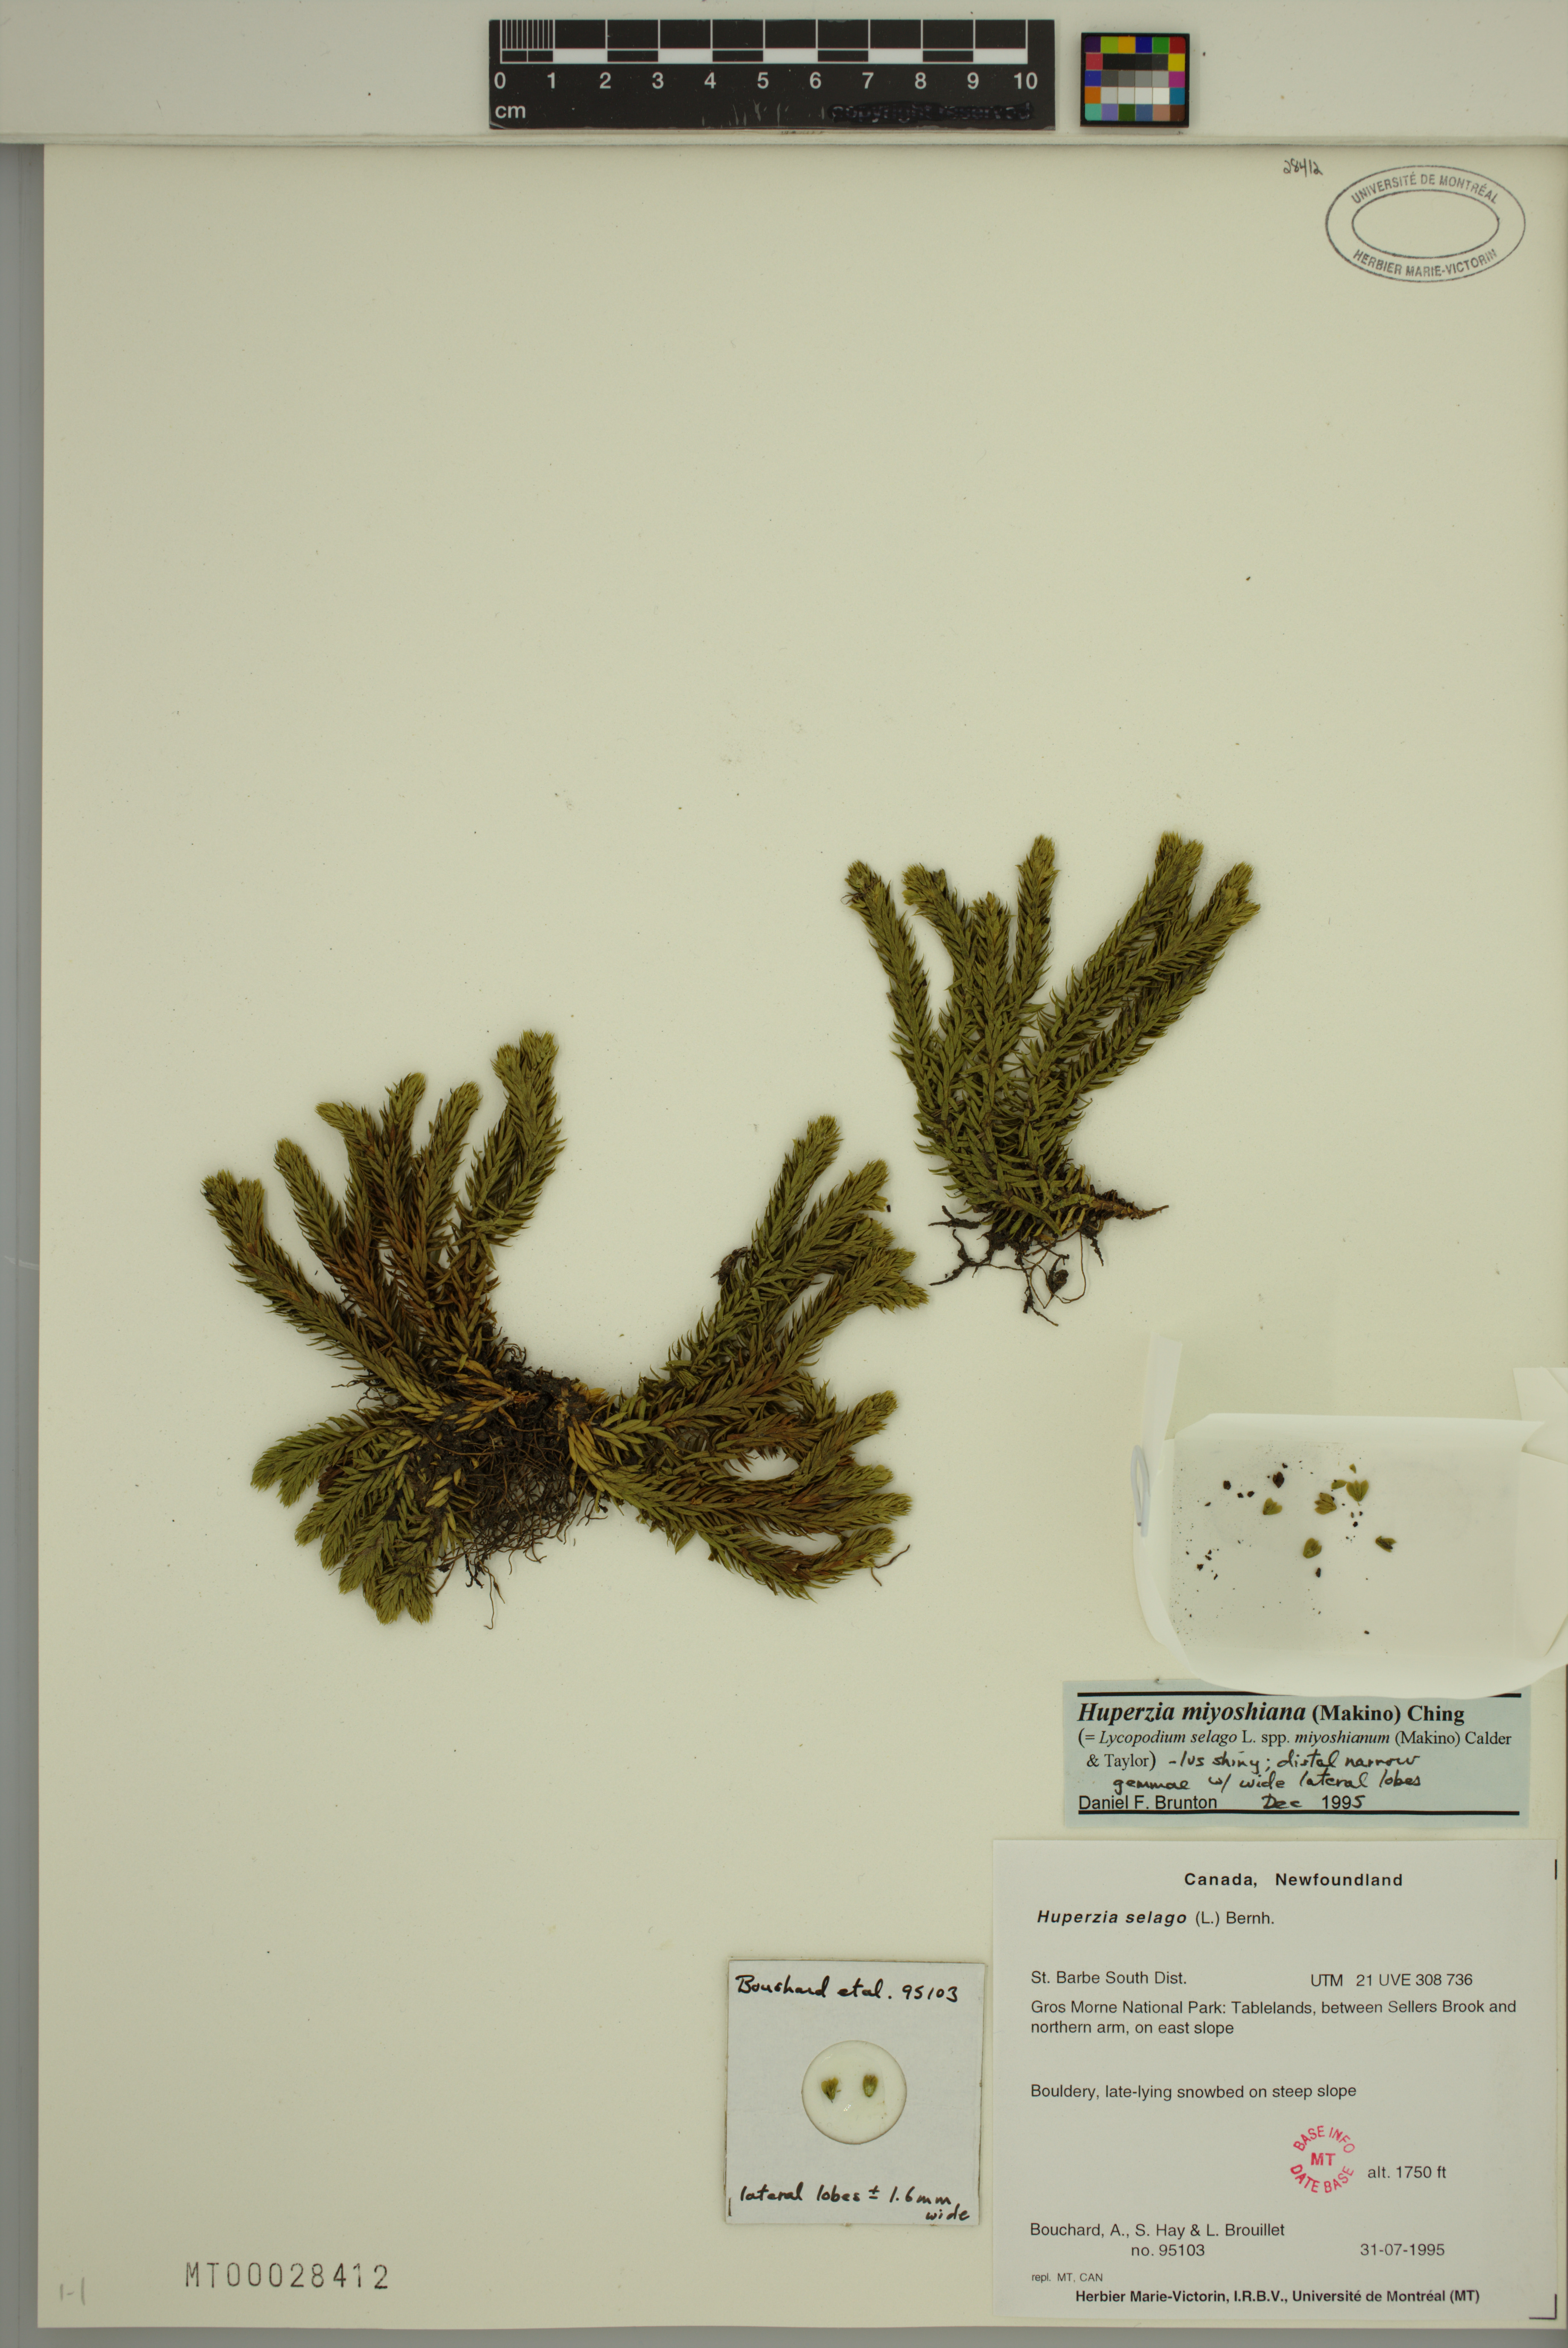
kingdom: Plantae
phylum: Tracheophyta
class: Lycopodiopsida
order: Lycopodiales
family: Lycopodiaceae
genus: Huperzia
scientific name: Huperzia miyoshiana
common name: Chinese clubmoss
